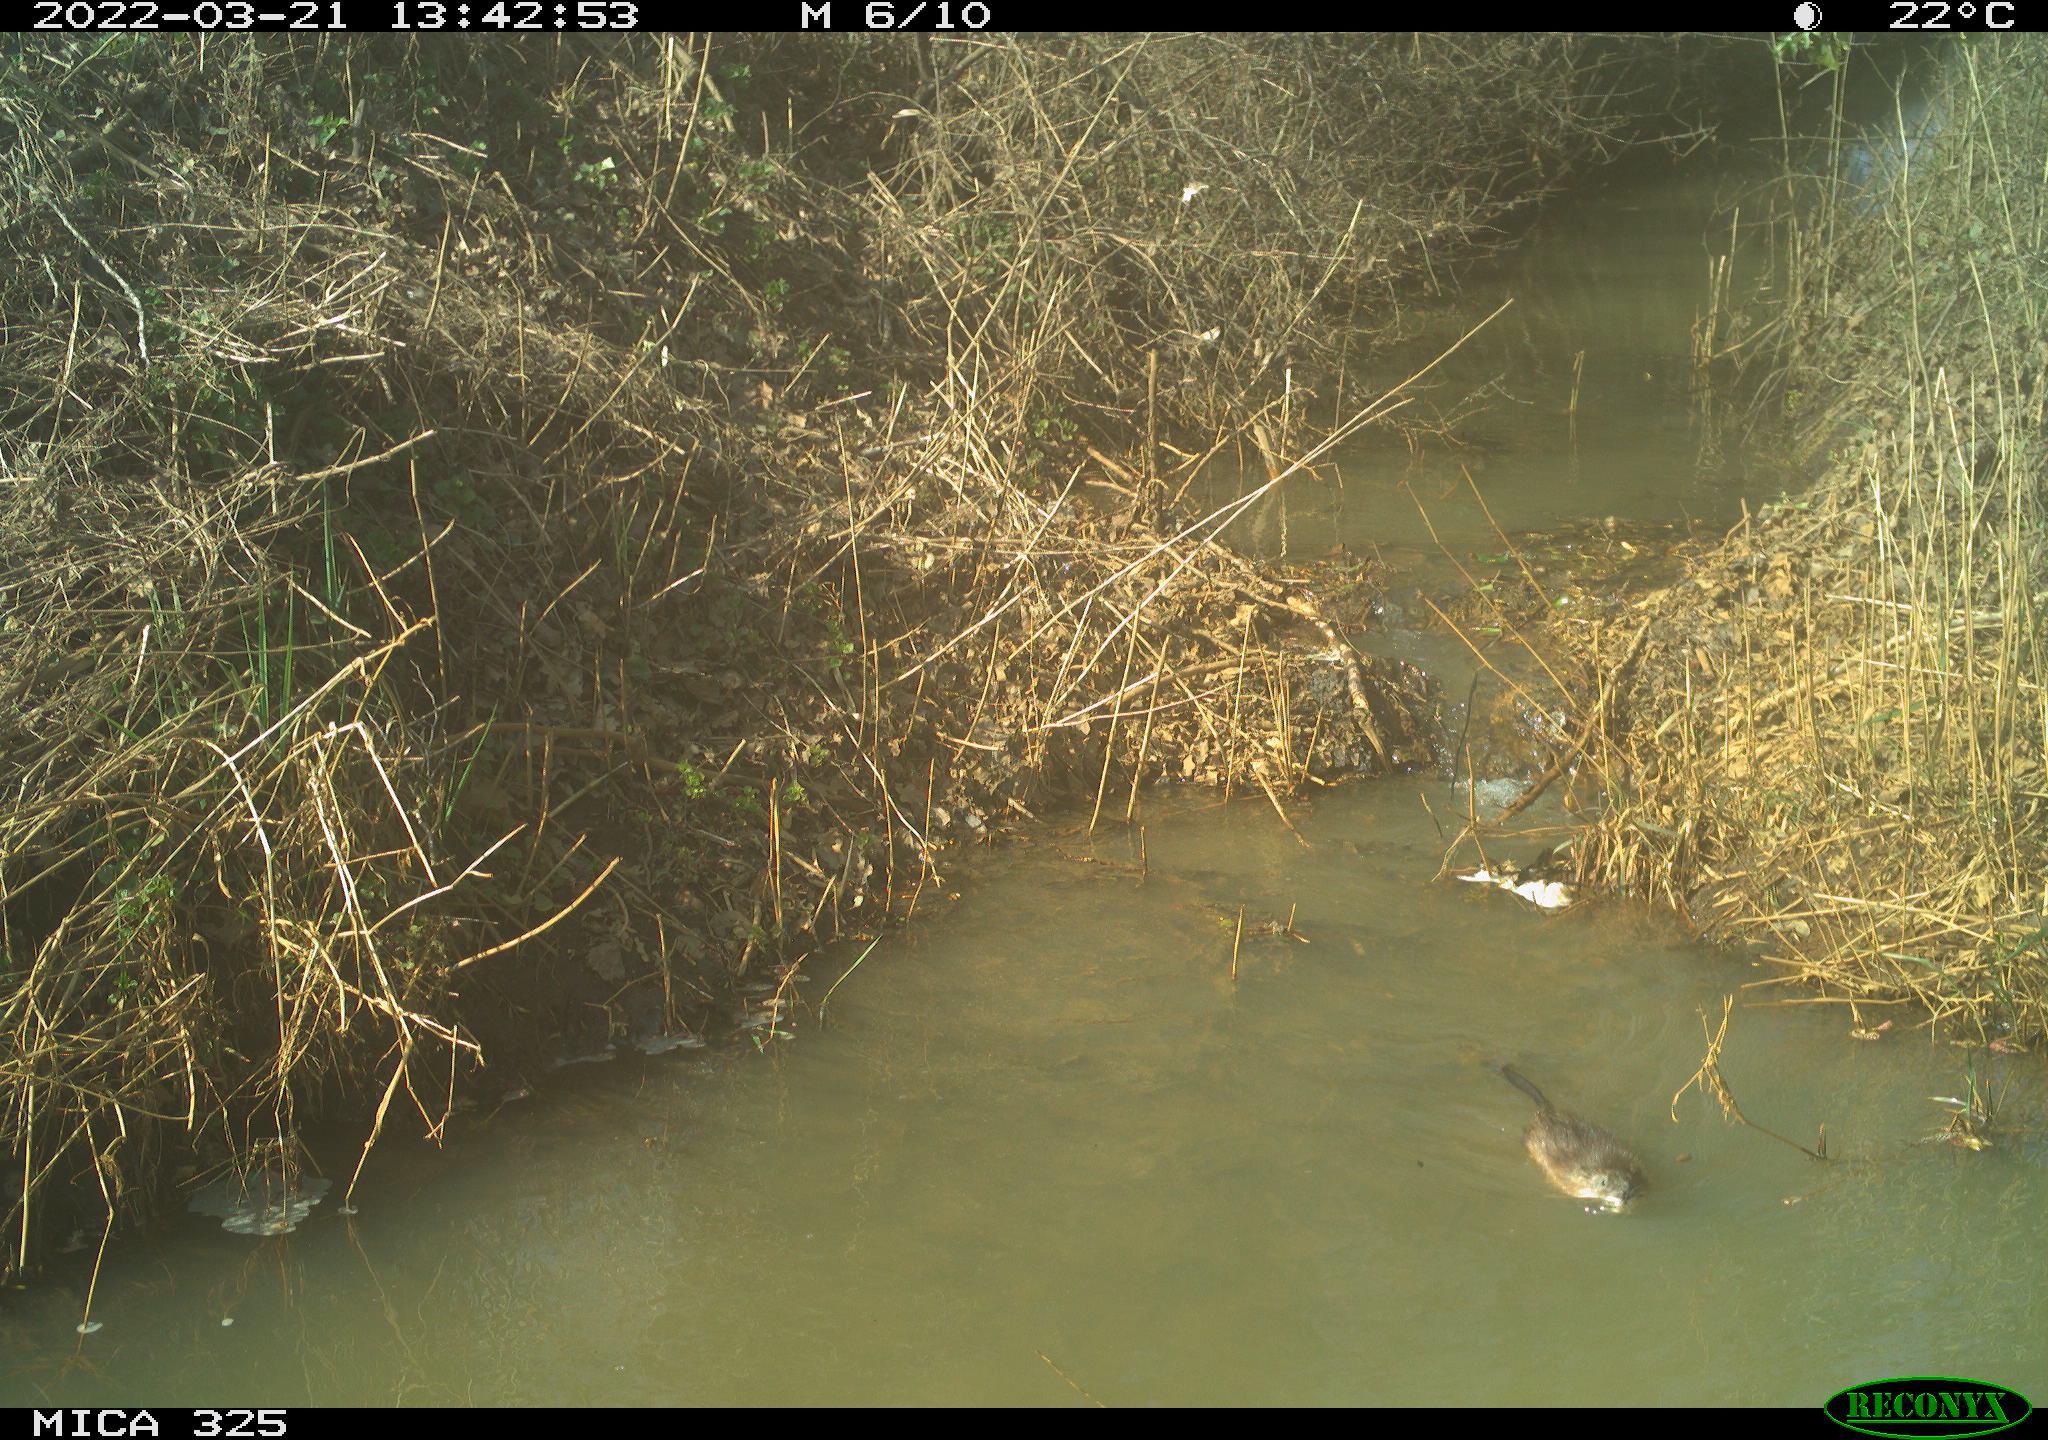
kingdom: Animalia
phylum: Chordata
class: Mammalia
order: Rodentia
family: Cricetidae
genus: Ondatra
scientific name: Ondatra zibethicus
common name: Muskrat
